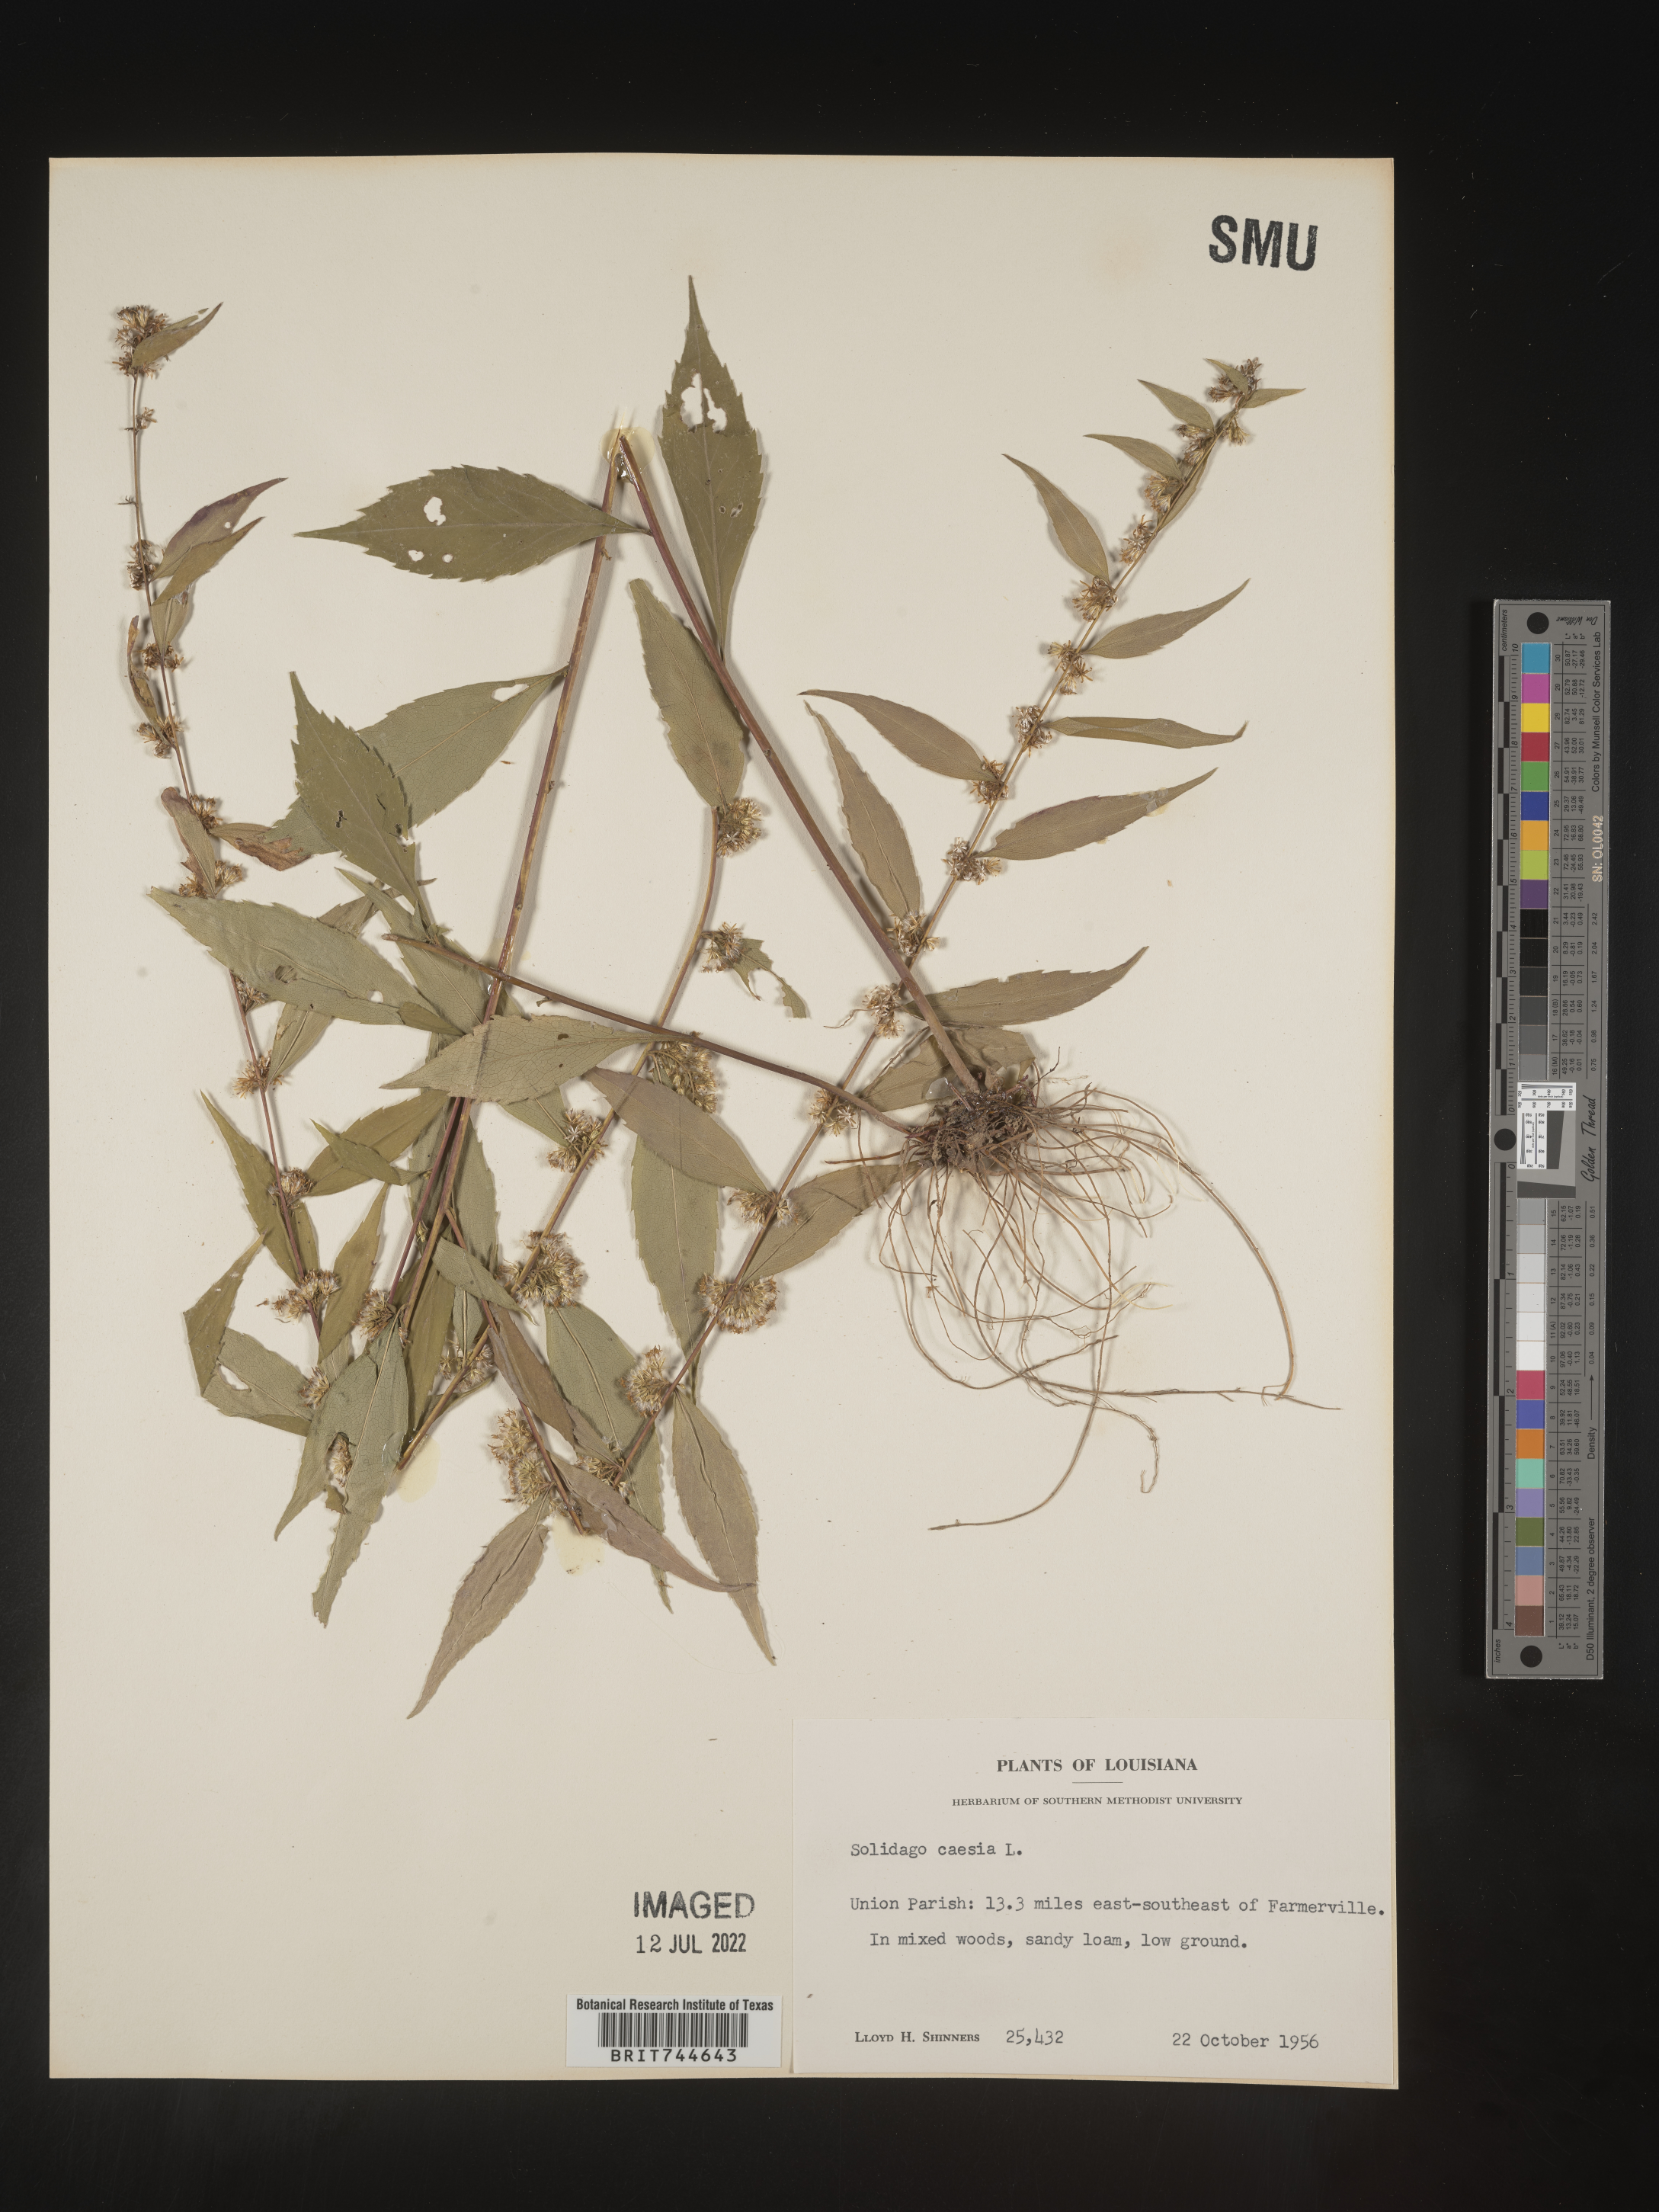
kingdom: Plantae
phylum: Tracheophyta
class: Magnoliopsida
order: Asterales
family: Asteraceae
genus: Solidago
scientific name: Solidago caesia
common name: Woodland goldenrod
